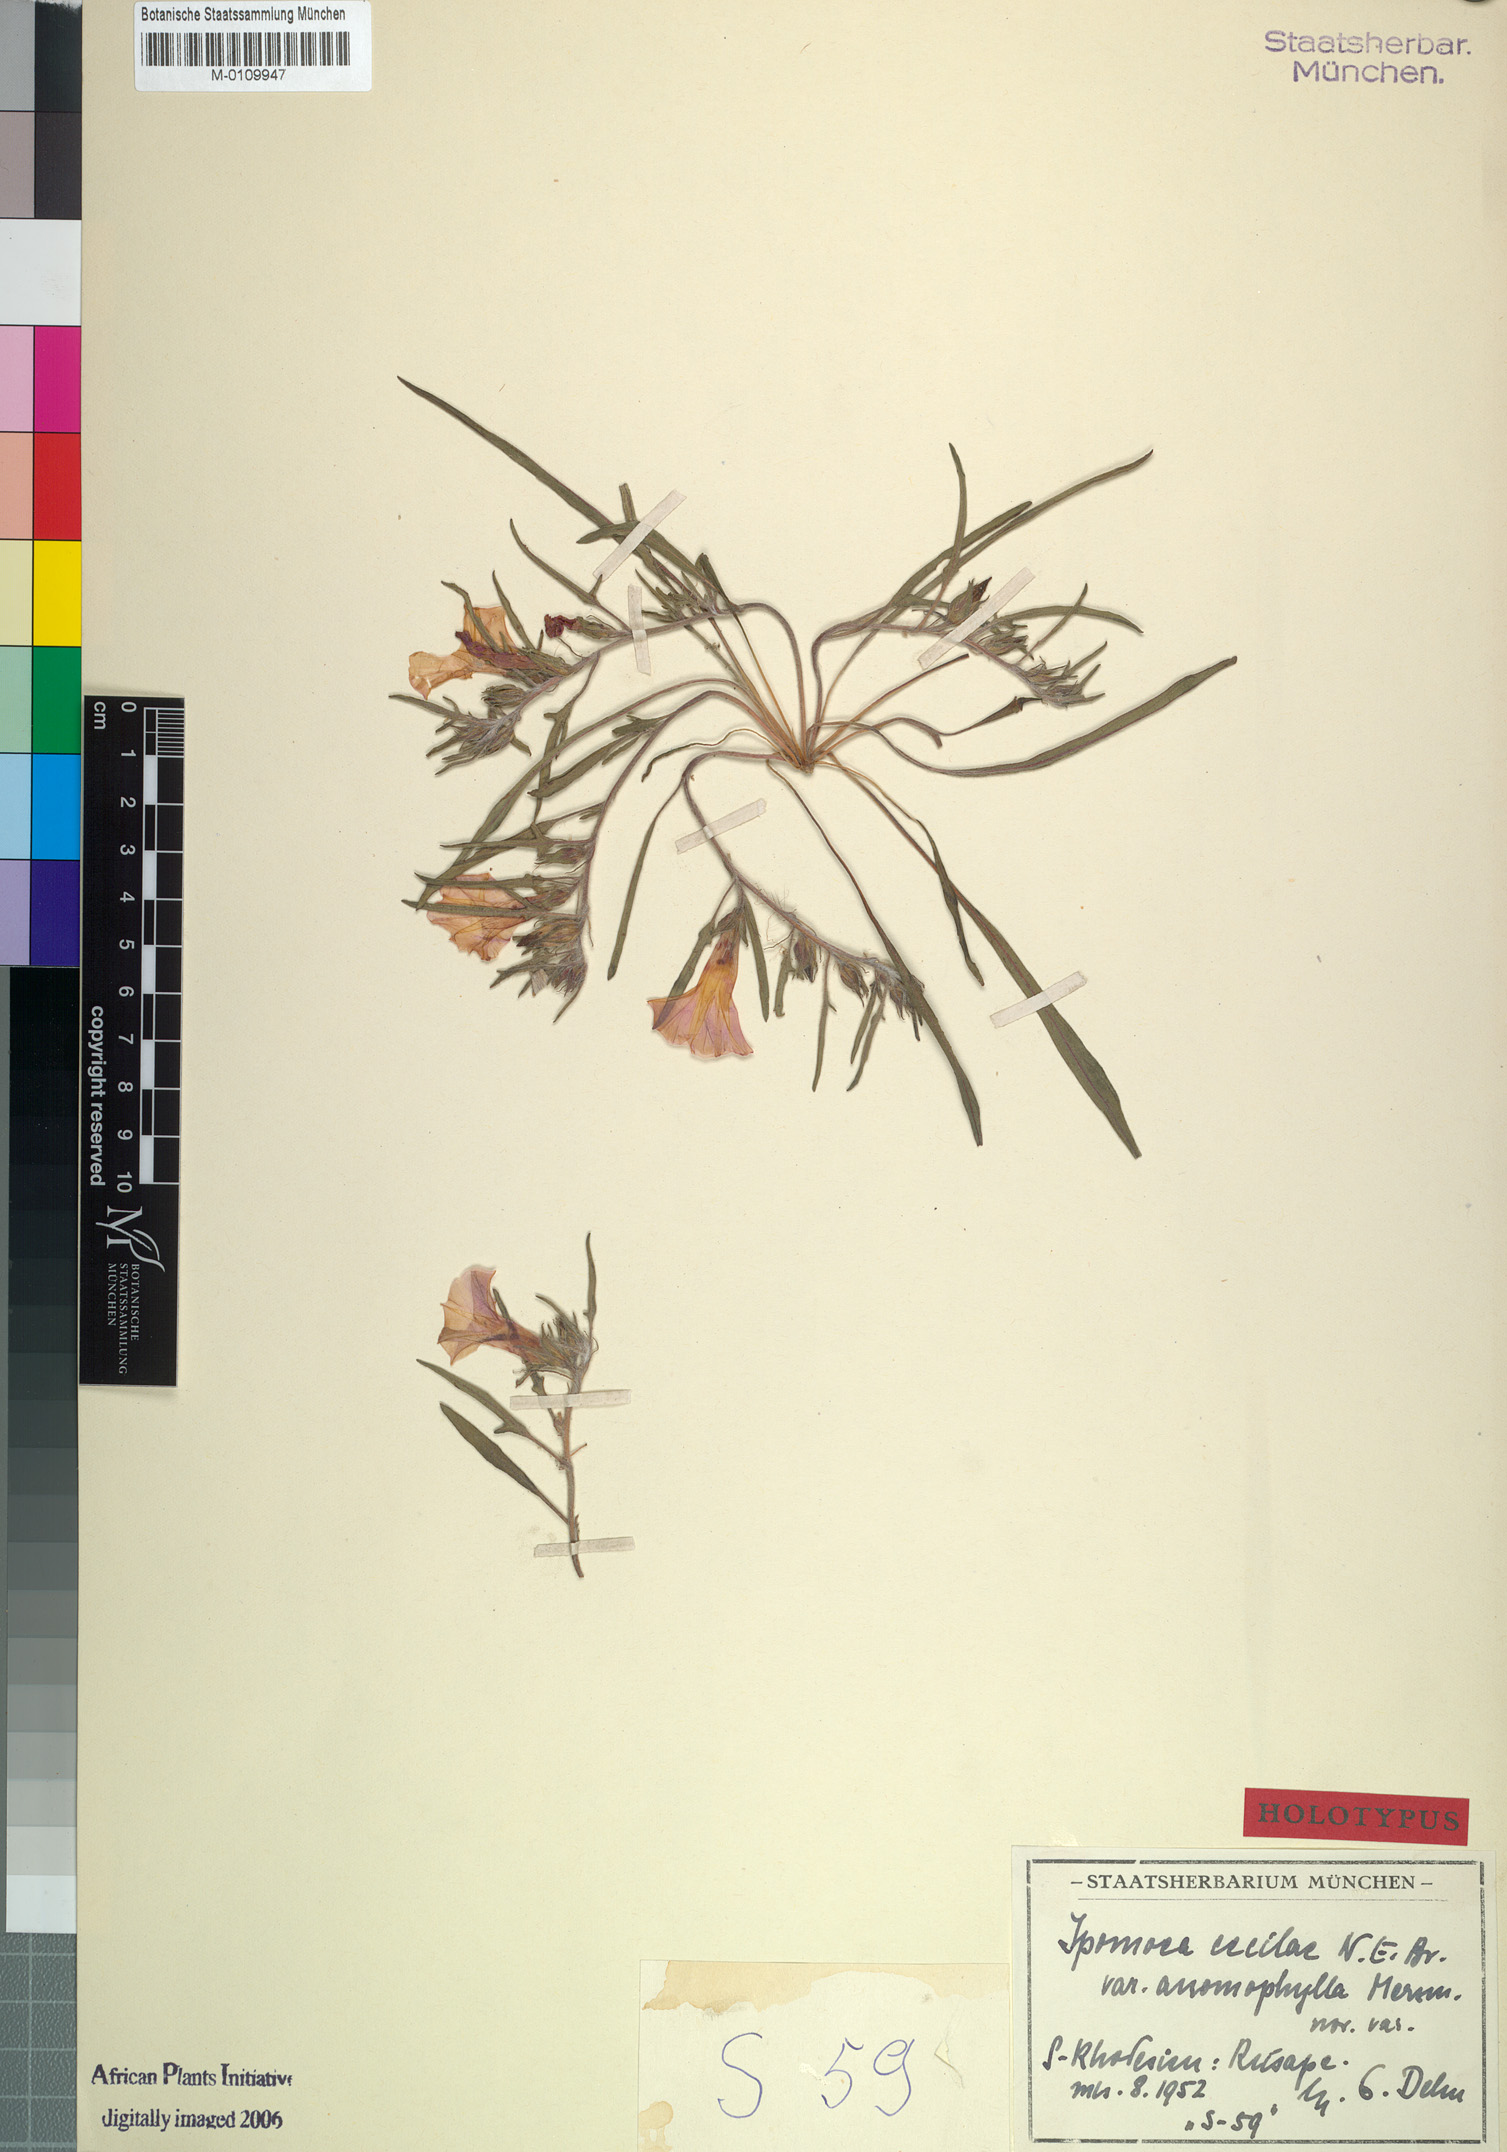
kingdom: Plantae
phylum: Tracheophyta
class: Magnoliopsida
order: Solanales
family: Convolvulaceae
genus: Ipomoea
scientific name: Ipomoea oenotherae
